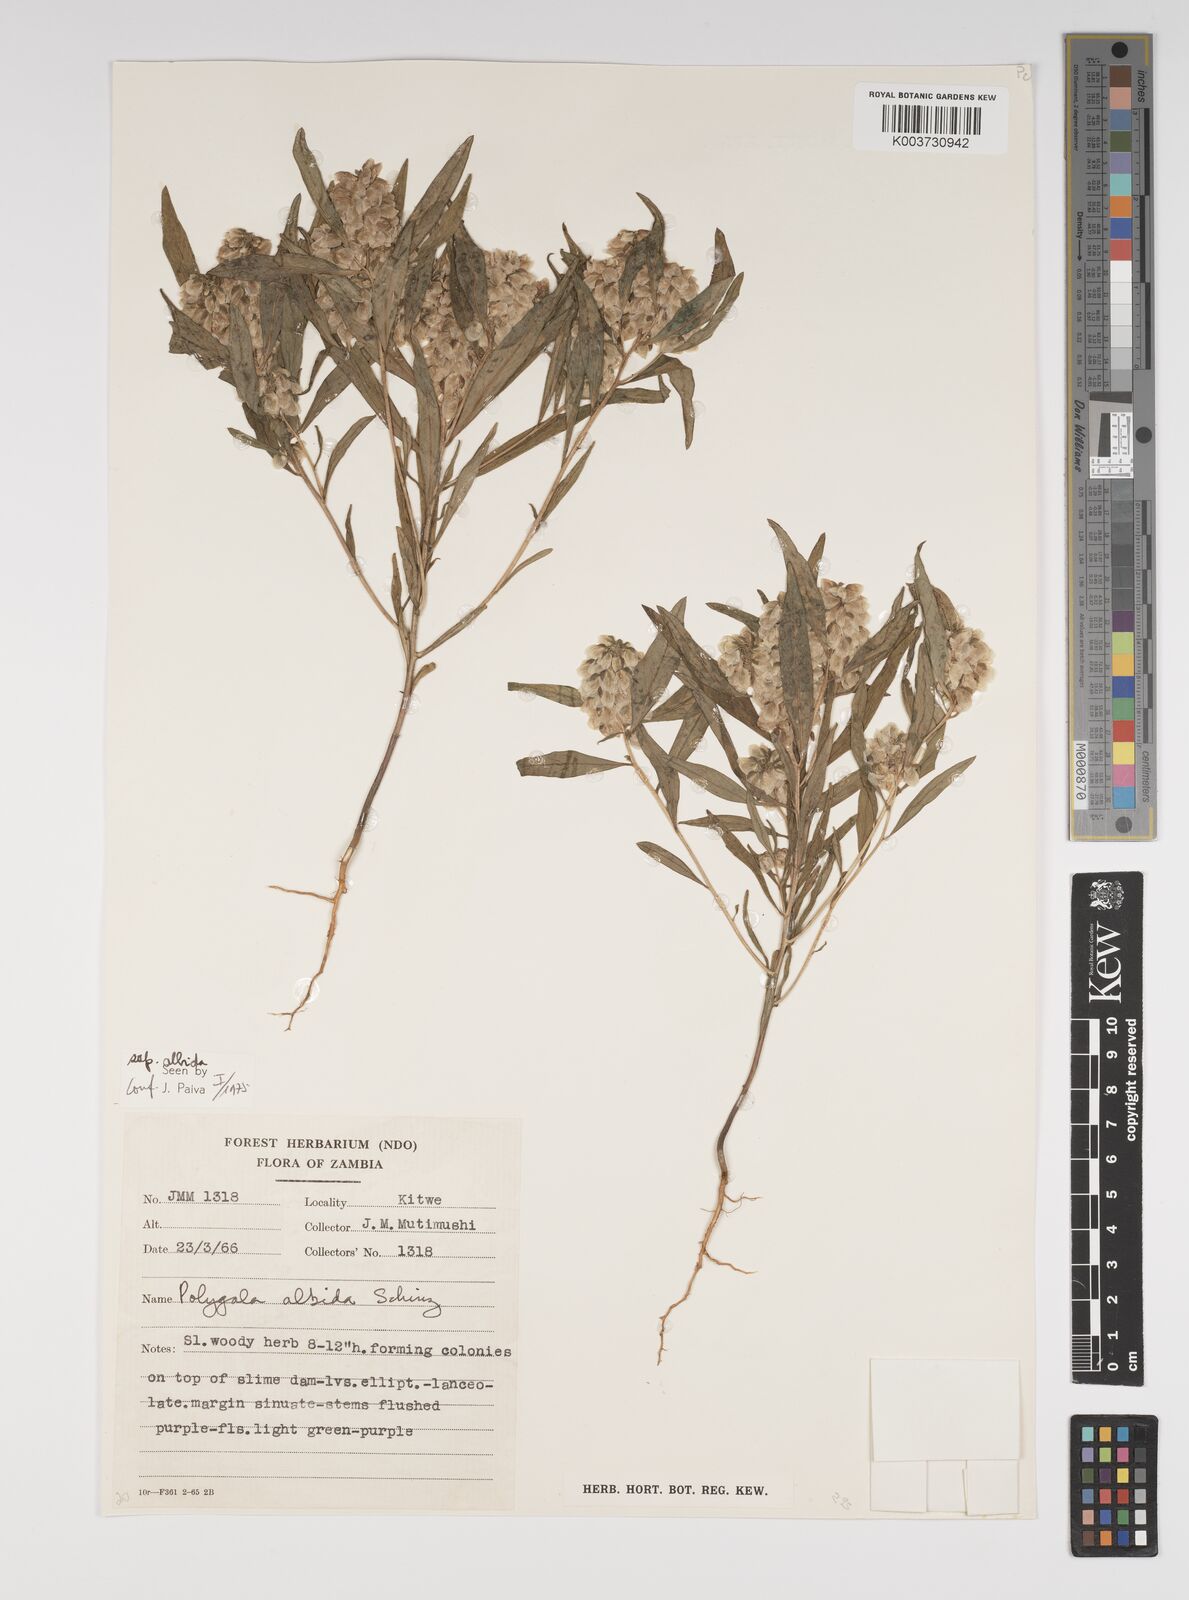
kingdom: Plantae
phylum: Tracheophyta
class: Magnoliopsida
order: Fabales
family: Polygalaceae
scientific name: Polygalaceae
